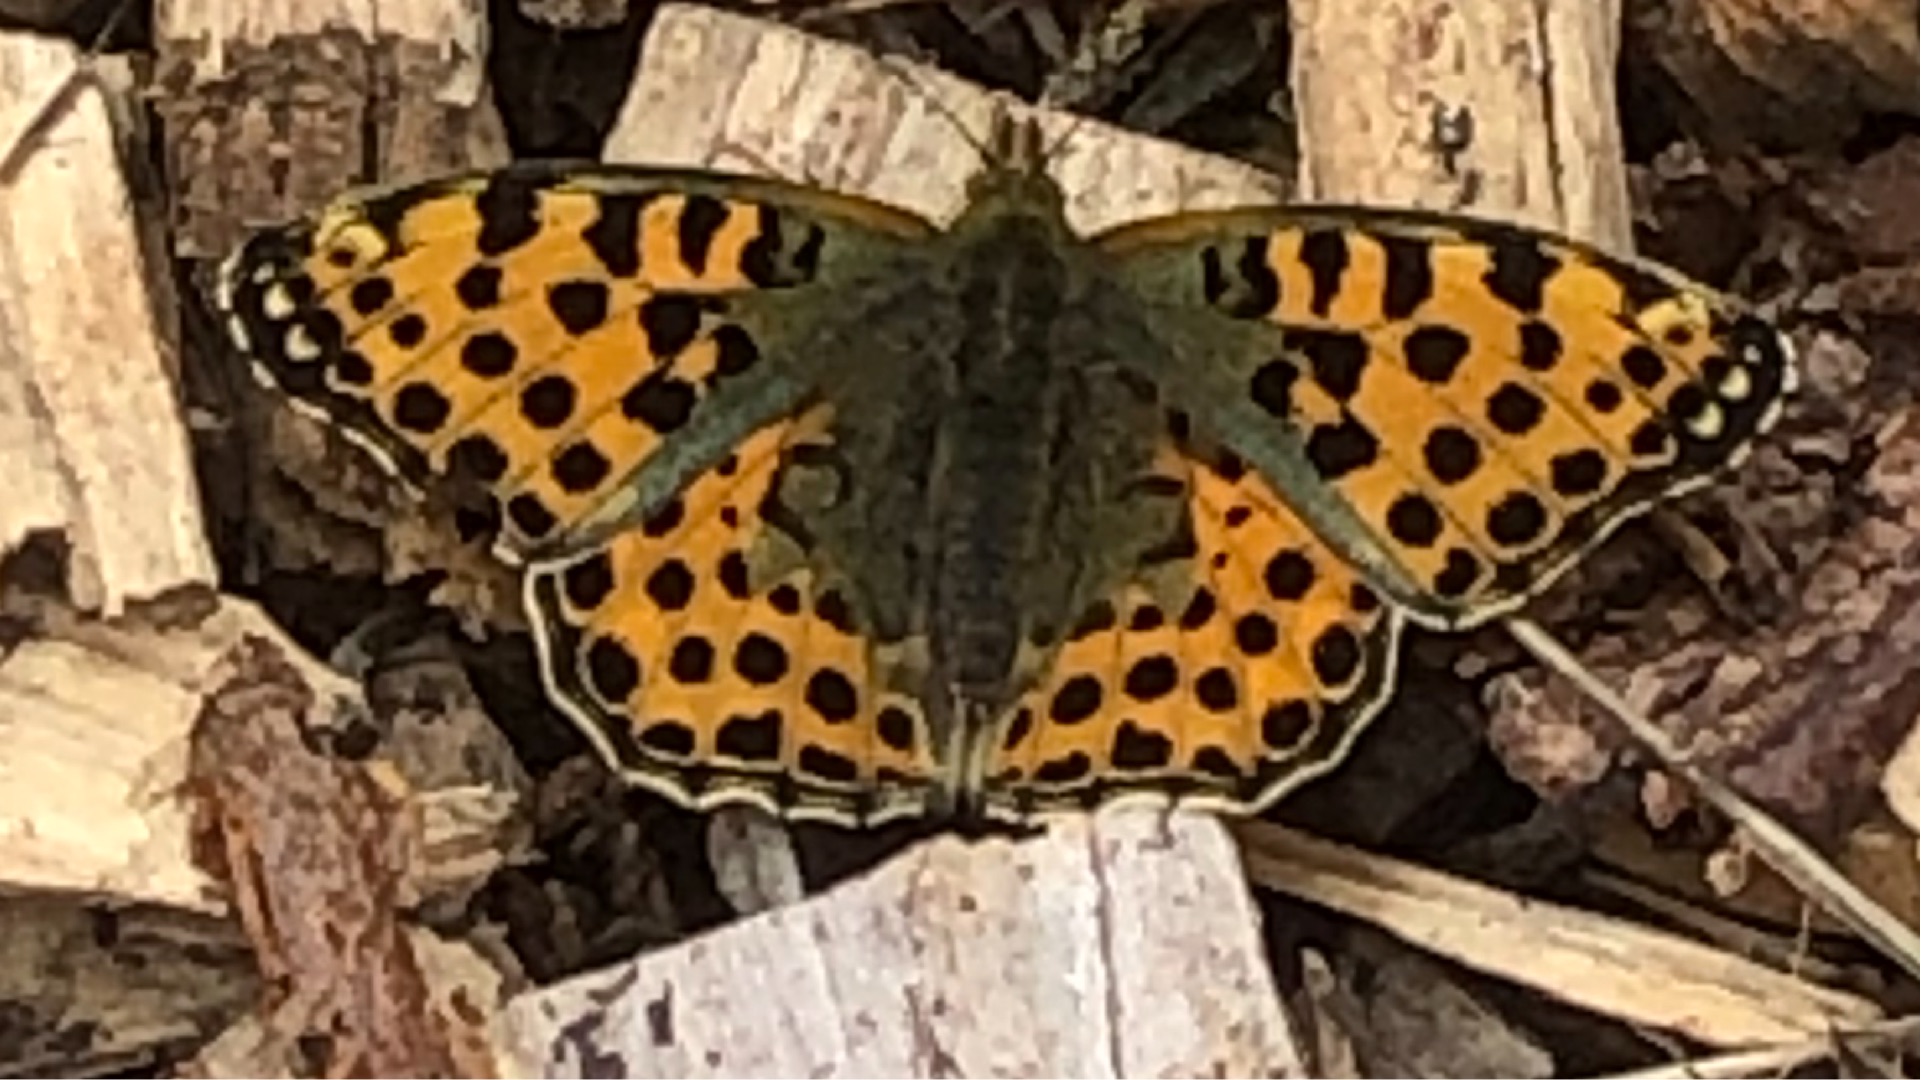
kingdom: Animalia
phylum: Arthropoda
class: Insecta
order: Lepidoptera
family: Nymphalidae
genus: Issoria
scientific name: Issoria lathonia
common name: Storplettet perlemorsommerfugl
